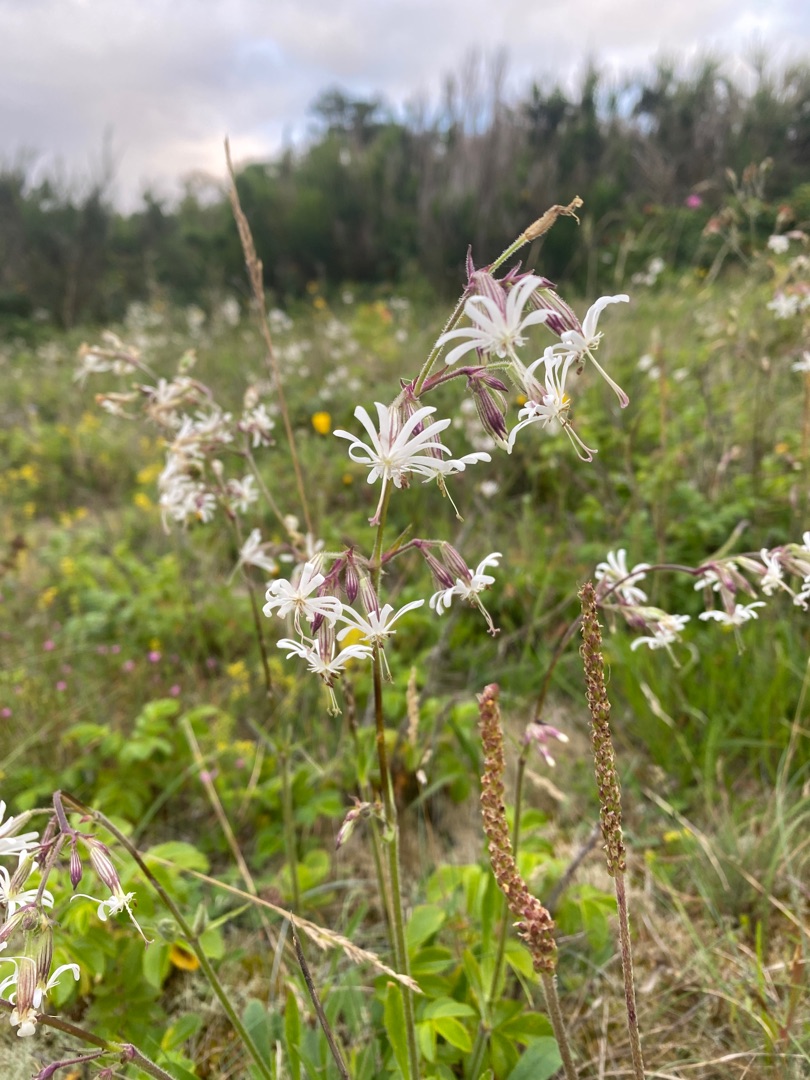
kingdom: Plantae
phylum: Tracheophyta
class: Magnoliopsida
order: Caryophyllales
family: Caryophyllaceae
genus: Silene
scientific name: Silene nutans
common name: Nikkende limurt
